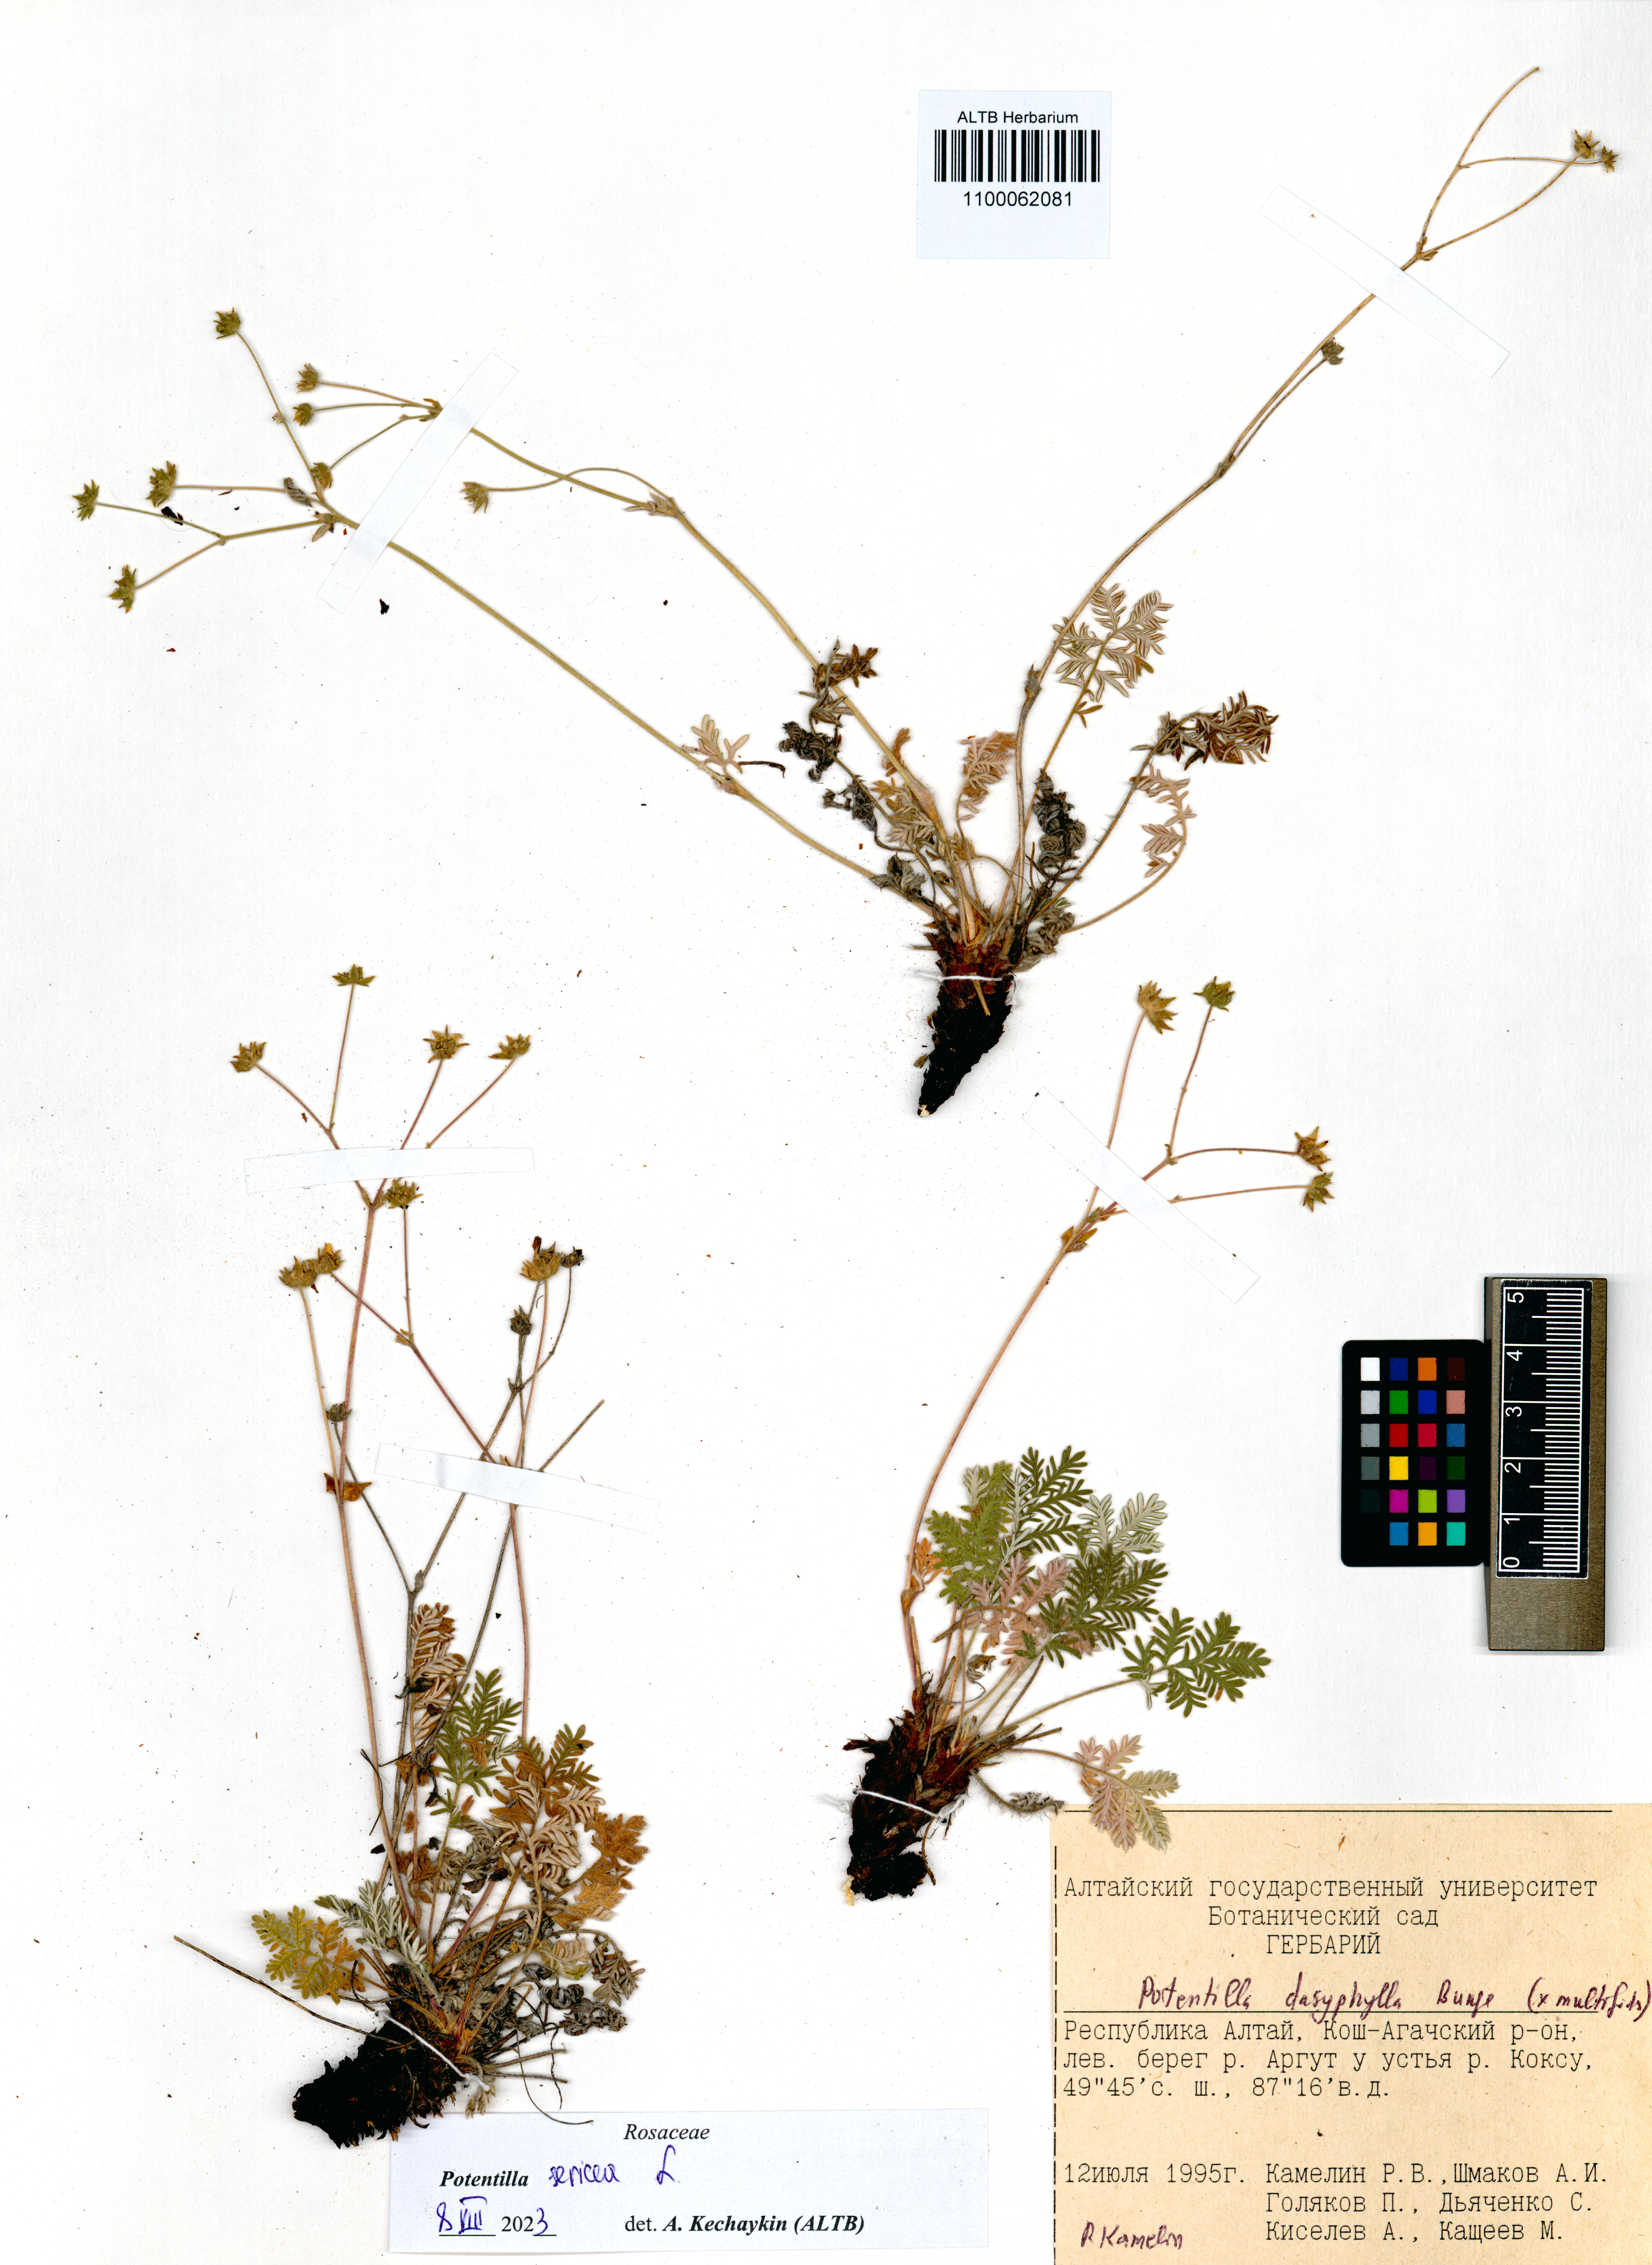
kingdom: Plantae
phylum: Tracheophyta
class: Magnoliopsida
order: Rosales
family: Rosaceae
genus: Potentilla
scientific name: Potentilla sericea
